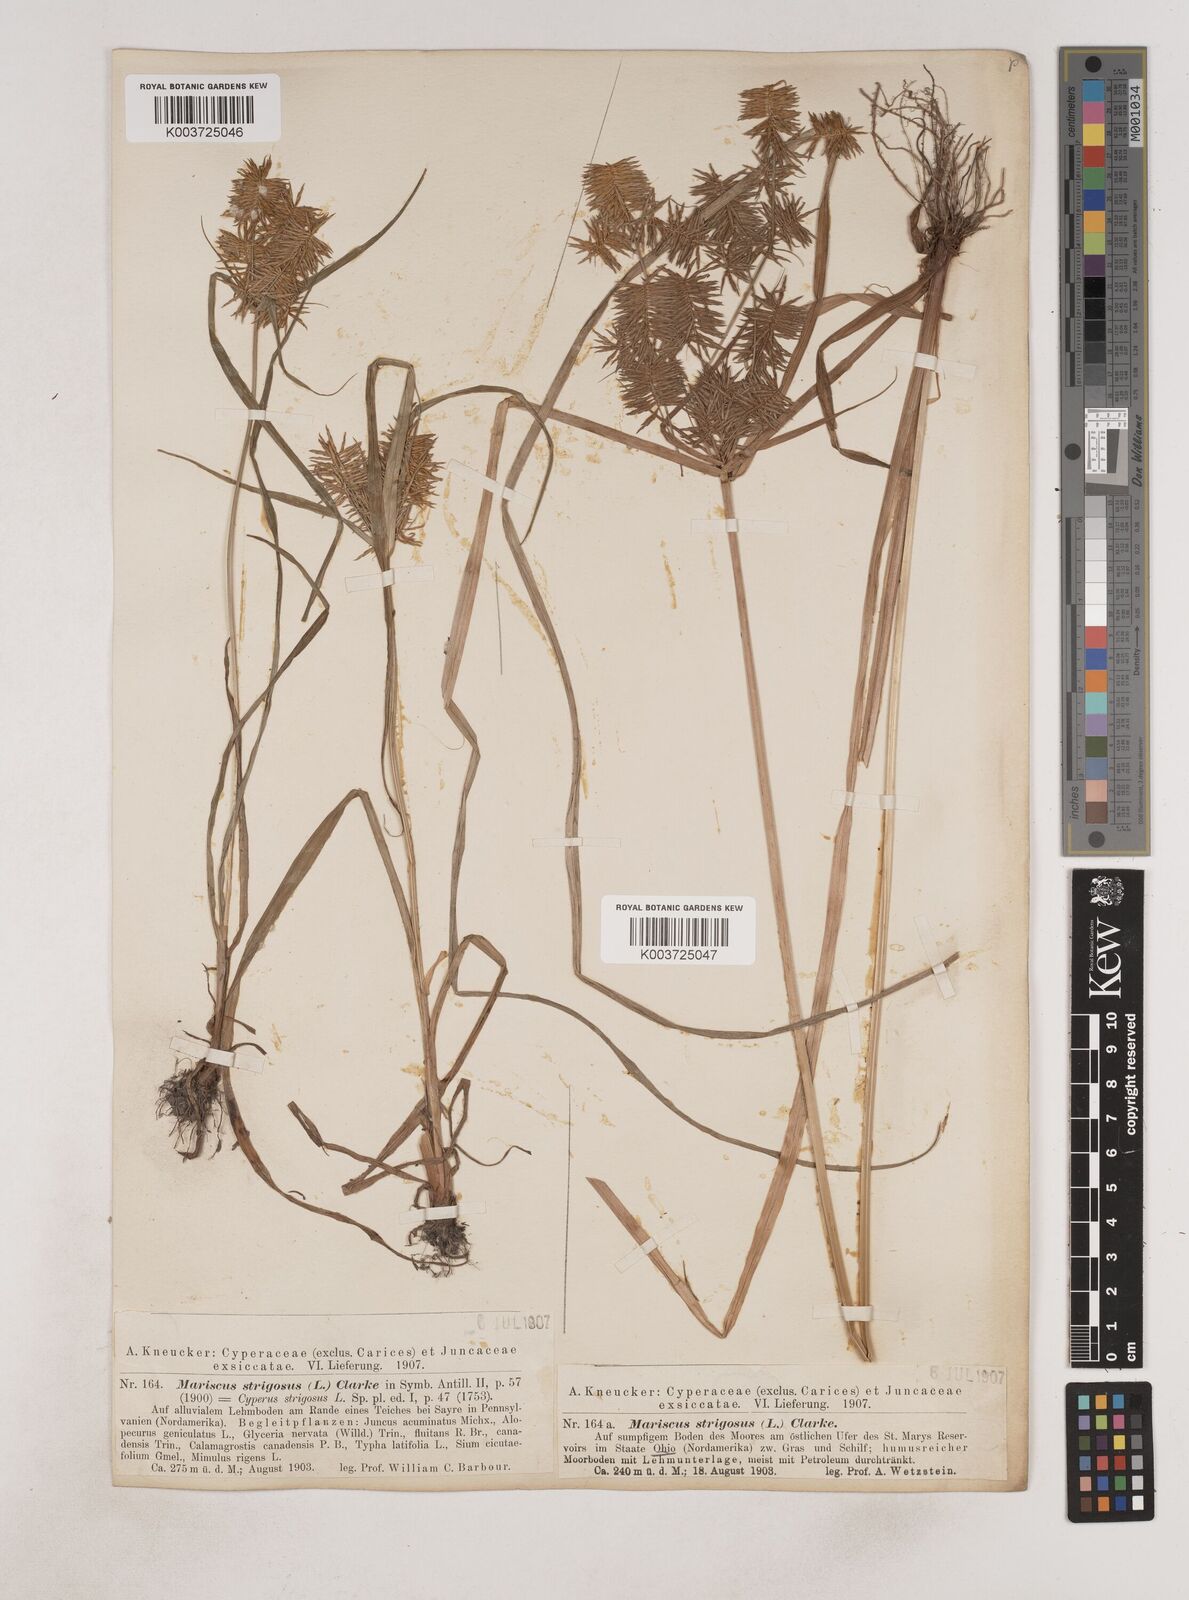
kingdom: Plantae
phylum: Tracheophyta
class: Liliopsida
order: Poales
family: Cyperaceae
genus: Cyperus
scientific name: Cyperus strigosus
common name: False nutsedge
